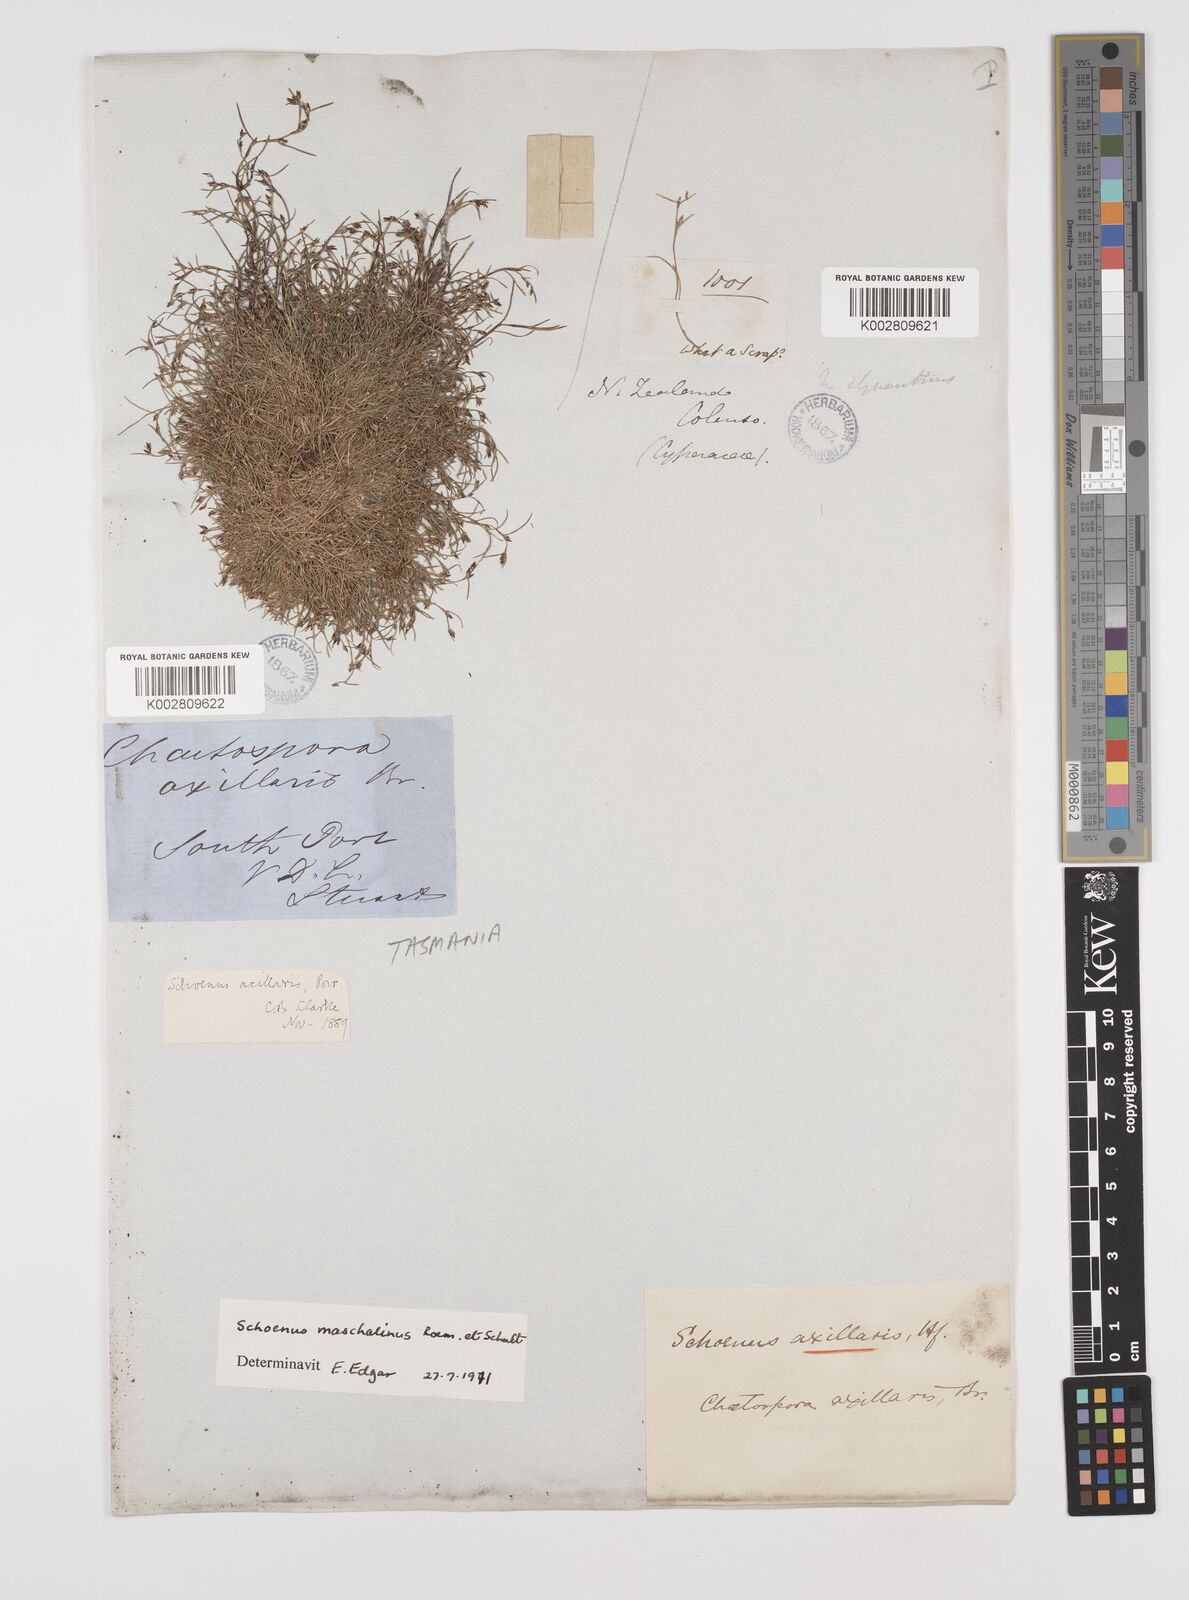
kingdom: Plantae
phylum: Tracheophyta
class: Liliopsida
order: Poales
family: Cyperaceae
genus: Schoenus
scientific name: Schoenus maschalinus
